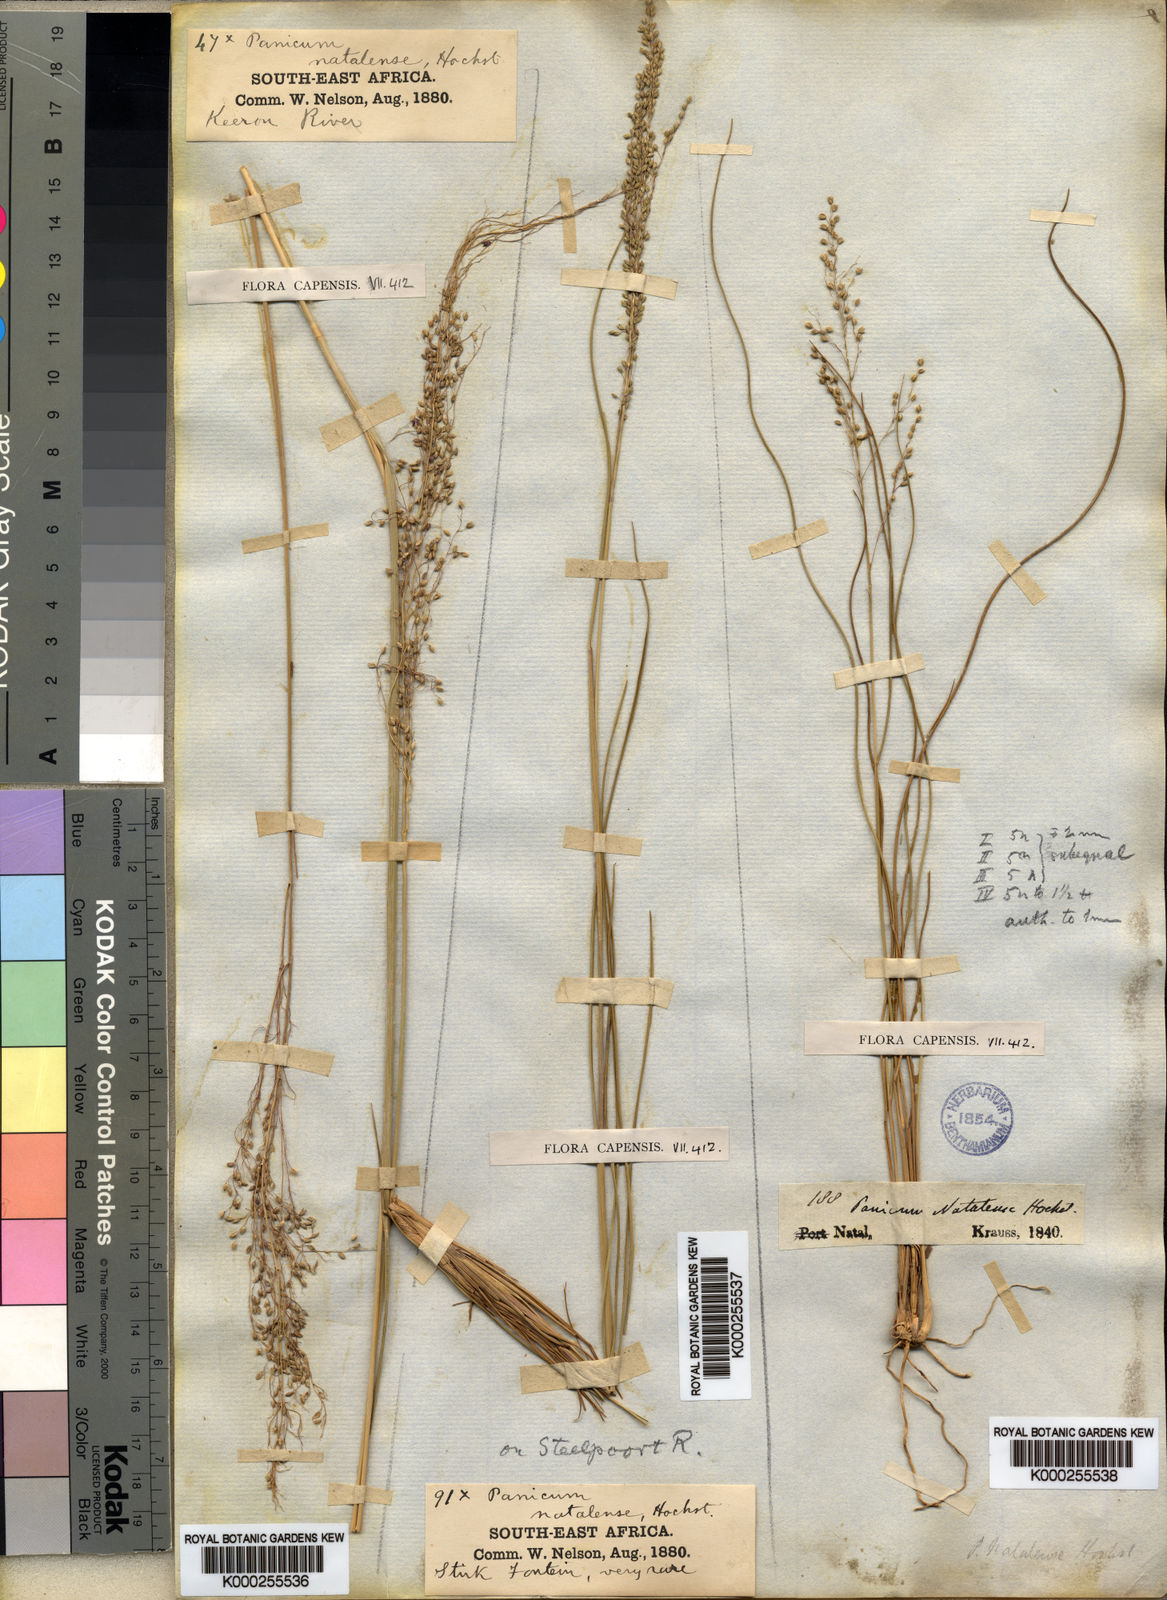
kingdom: Plantae
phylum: Tracheophyta
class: Liliopsida
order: Poales
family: Poaceae
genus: Trichanthecium
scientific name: Trichanthecium natalense
